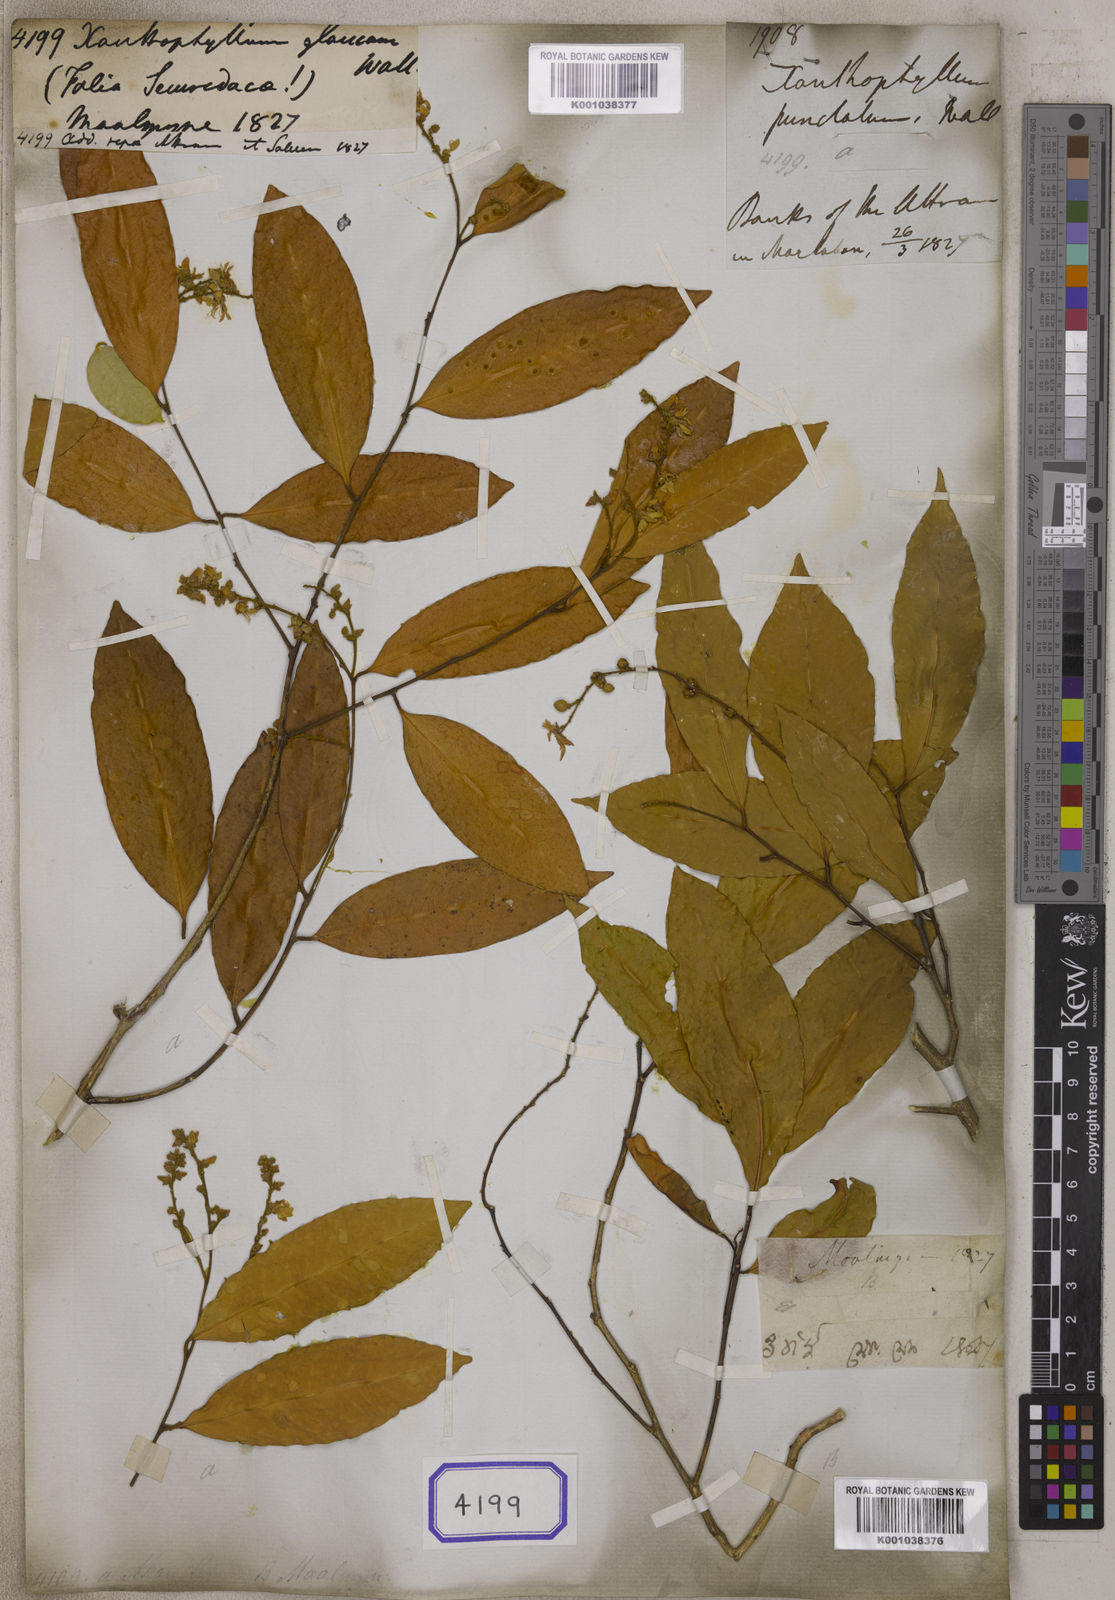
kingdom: Plantae
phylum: Tracheophyta
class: Magnoliopsida
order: Fabales
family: Polygalaceae
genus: Xanthophyllum
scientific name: Xanthophyllum
